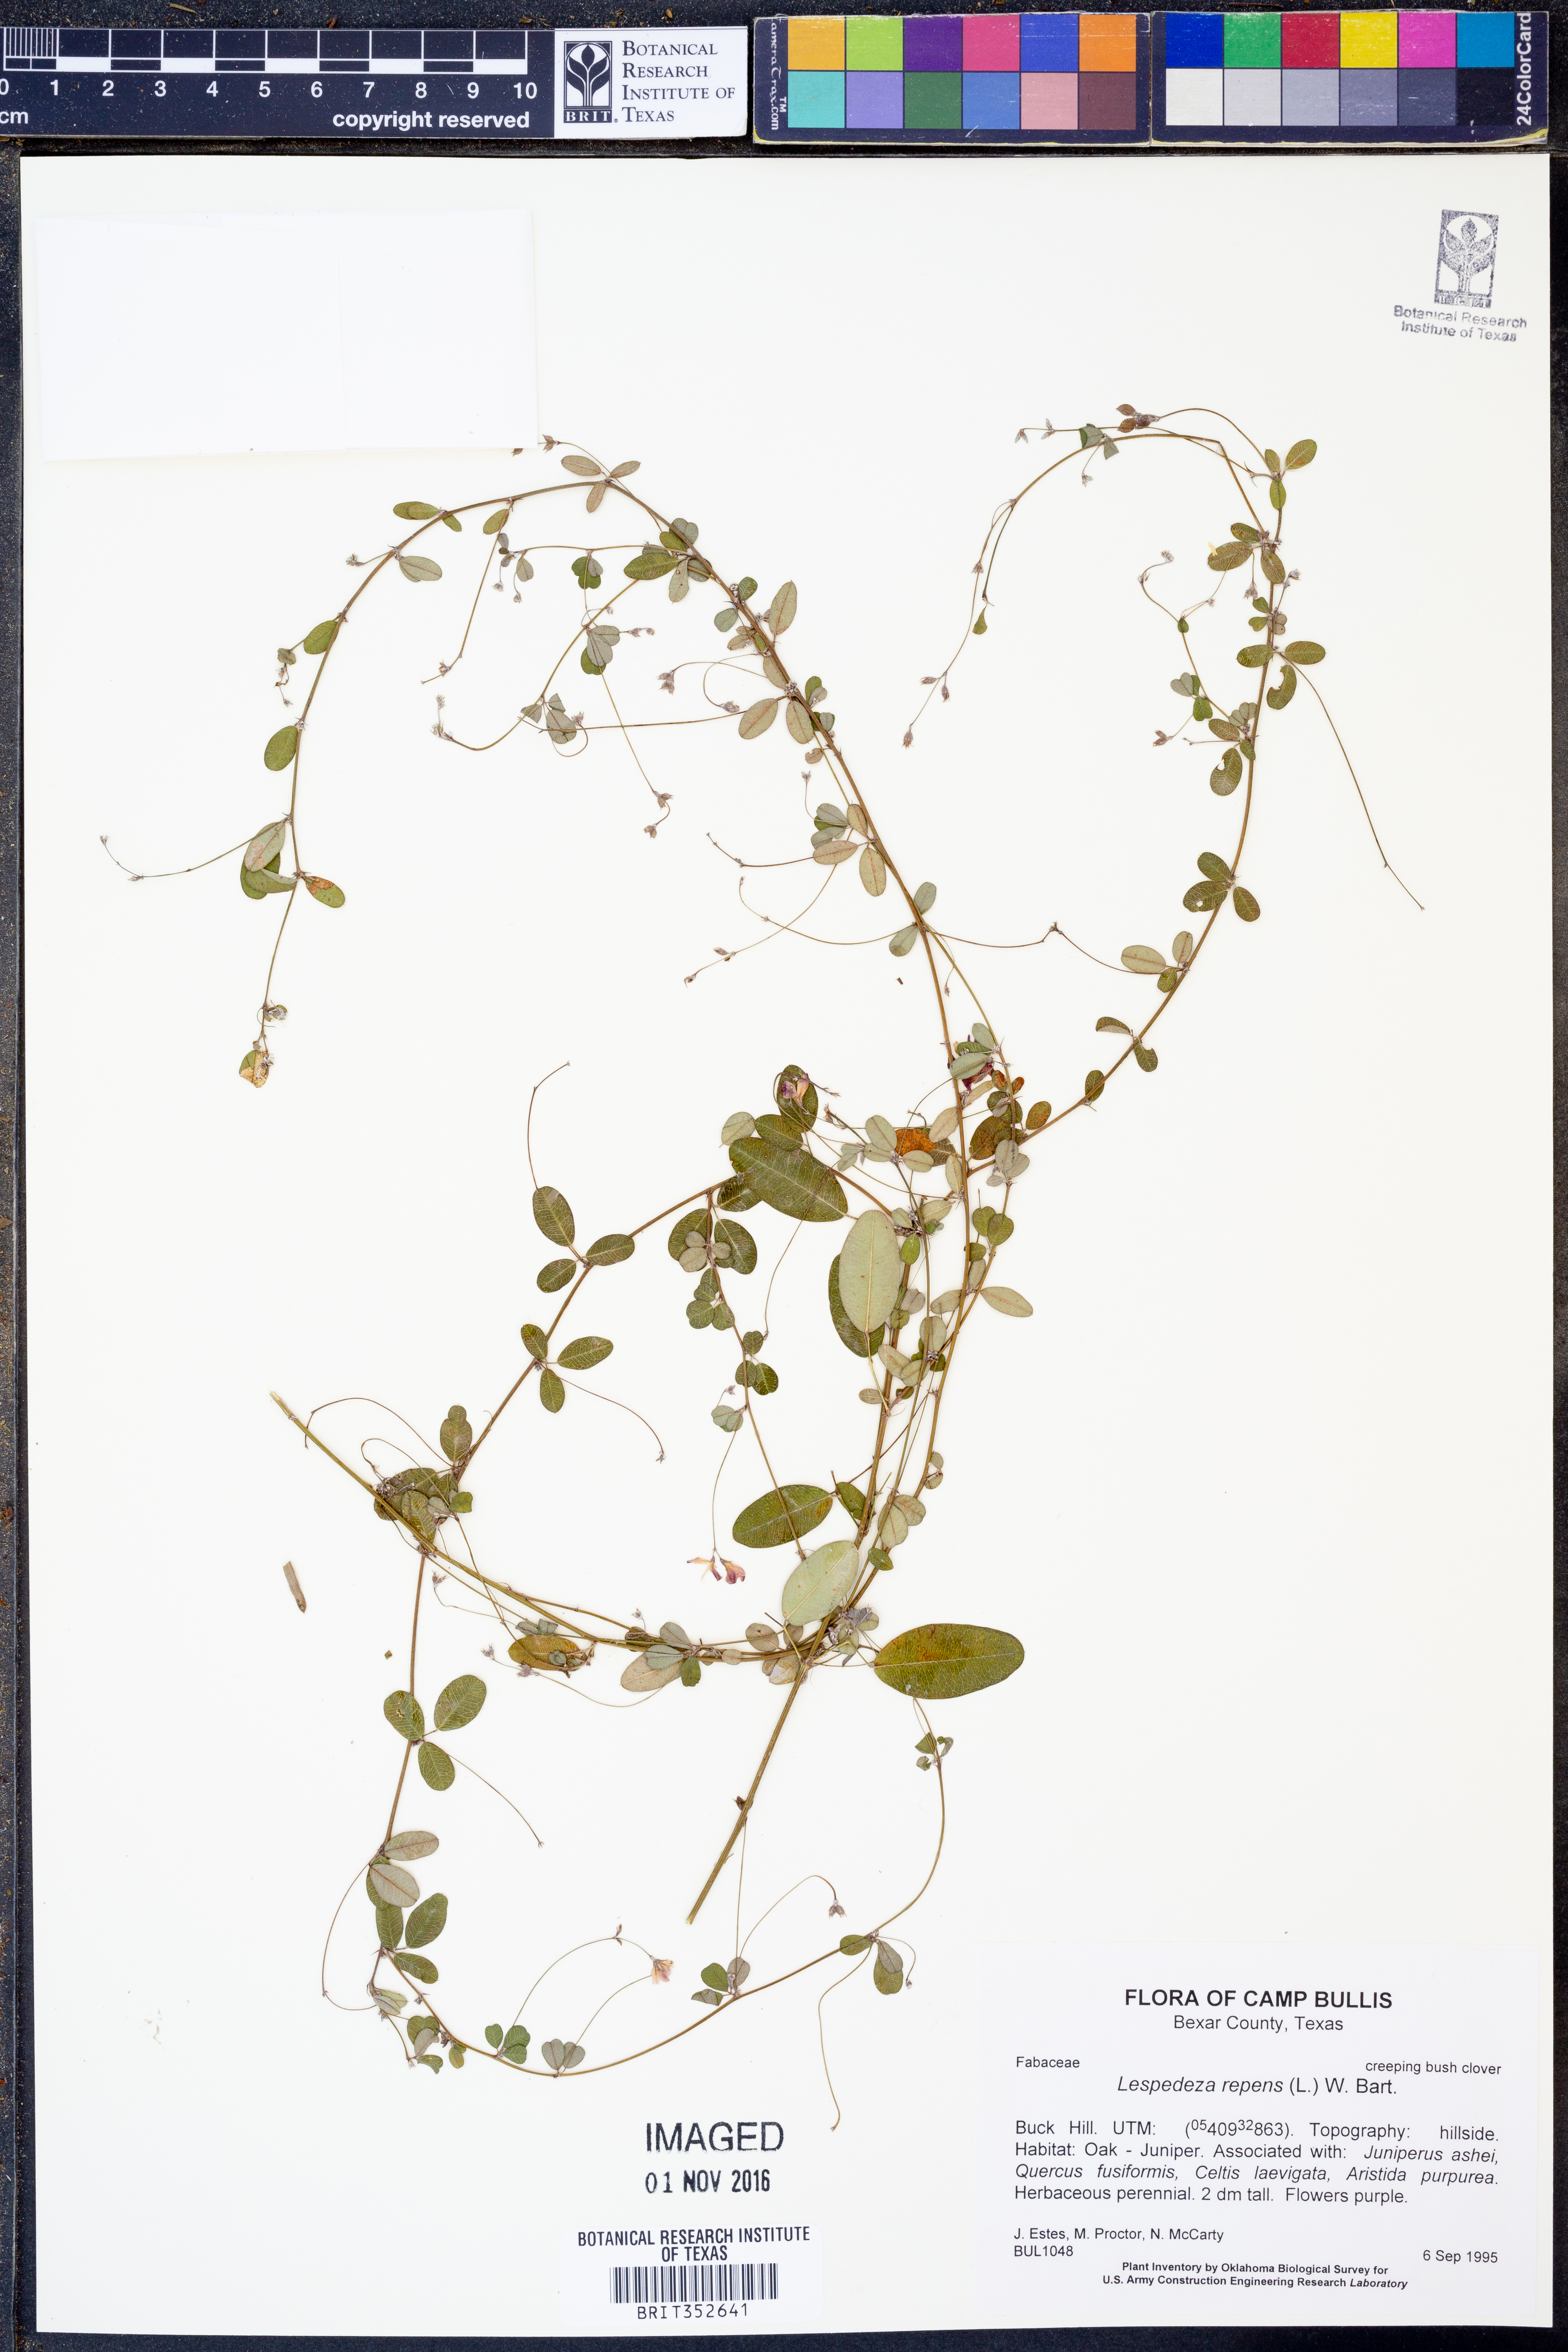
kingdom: Plantae
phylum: Tracheophyta
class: Magnoliopsida
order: Fabales
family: Fabaceae
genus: Lespedeza
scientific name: Lespedeza repens
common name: Creeping bush-clover
